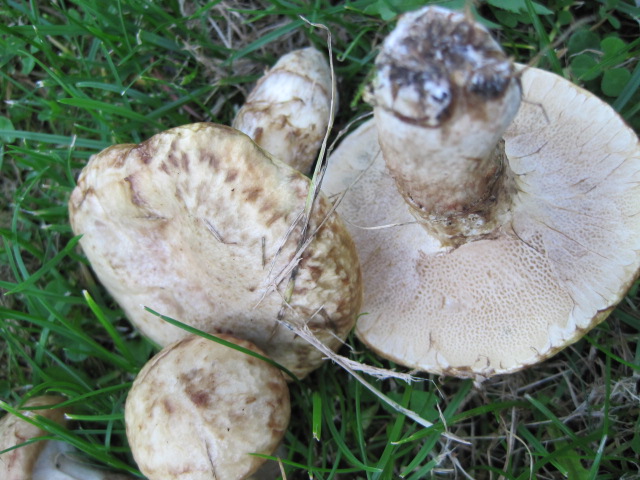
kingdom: Fungi
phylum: Basidiomycota
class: Agaricomycetes
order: Boletales
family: Suillaceae
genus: Suillus
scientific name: Suillus viscidus
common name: olivengrå slimrørhat
